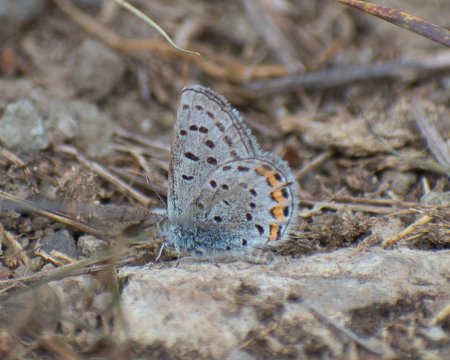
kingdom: Animalia
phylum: Arthropoda
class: Insecta
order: Lepidoptera
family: Lycaenidae
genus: Plebejus
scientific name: Plebejus lupini
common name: Lupine Blue
